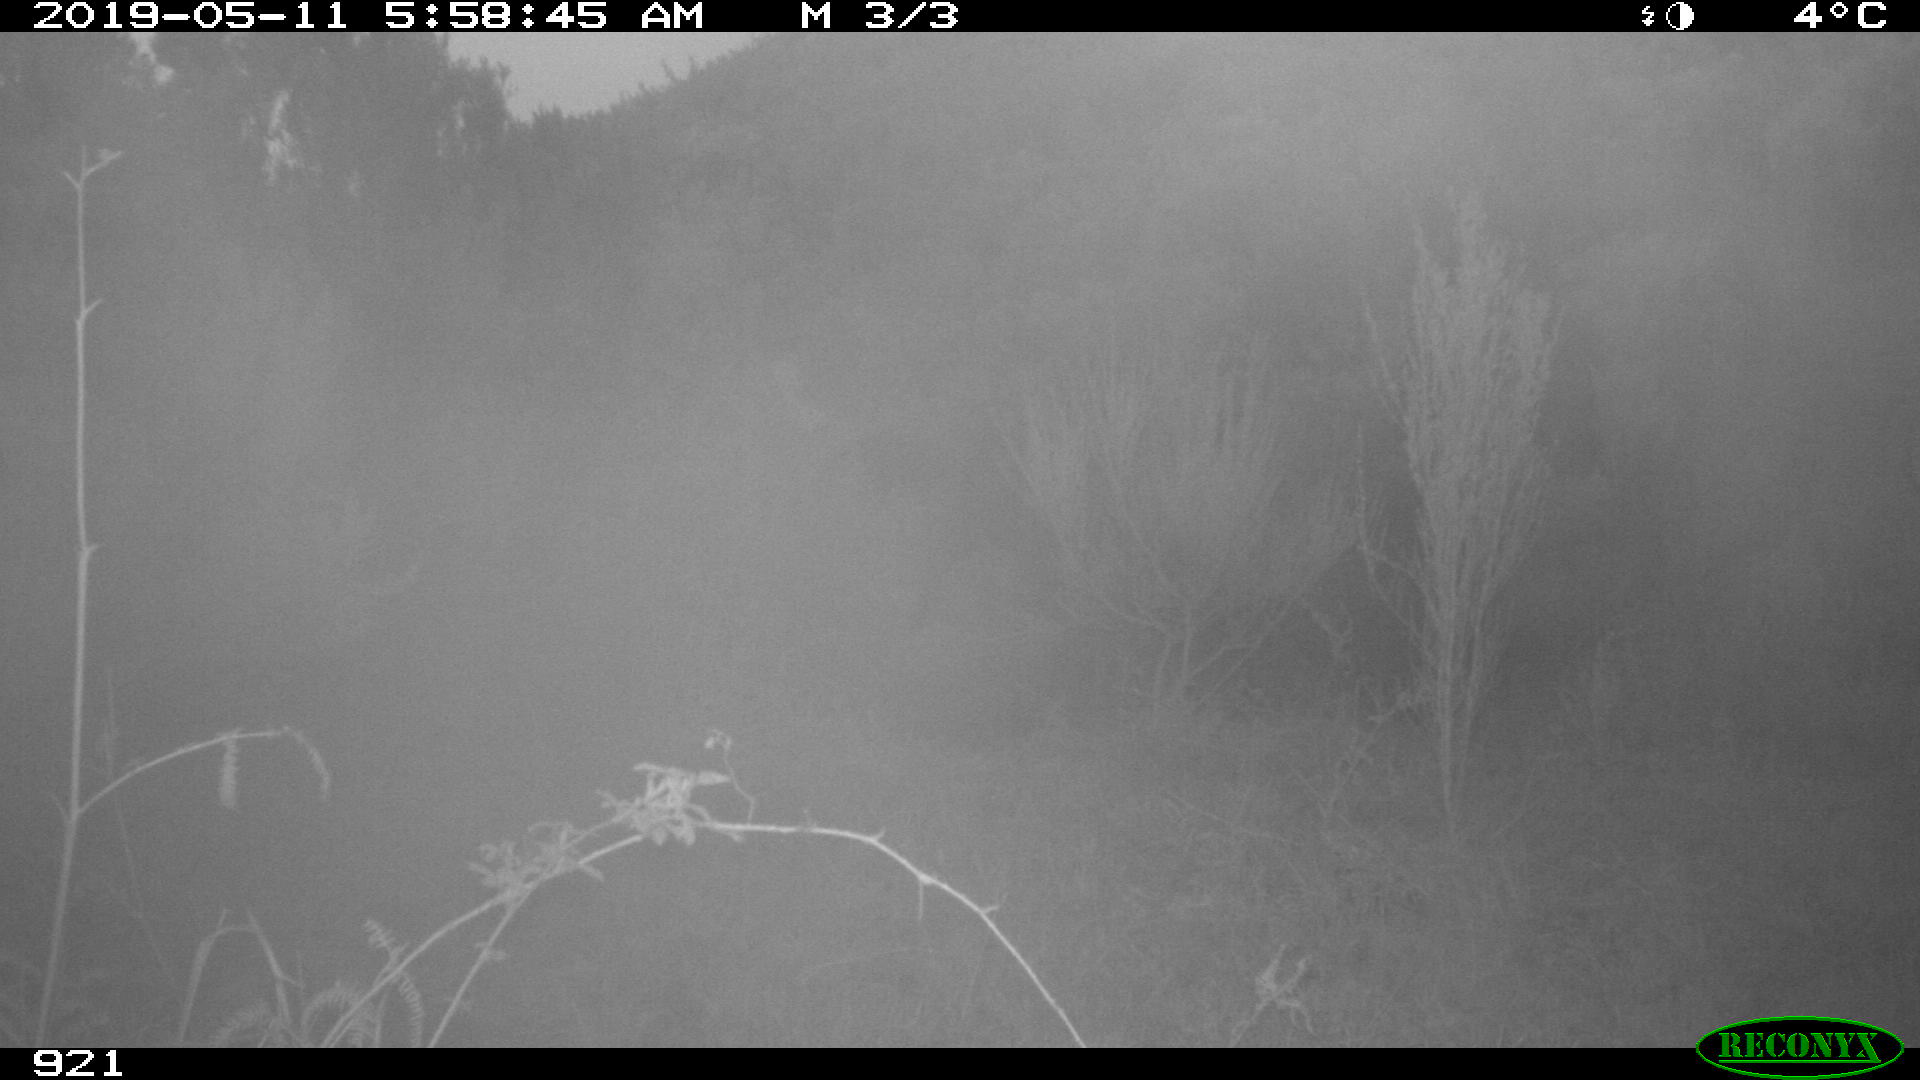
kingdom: Animalia
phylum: Chordata
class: Mammalia
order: Perissodactyla
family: Equidae
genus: Equus
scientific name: Equus caballus
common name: Horse
